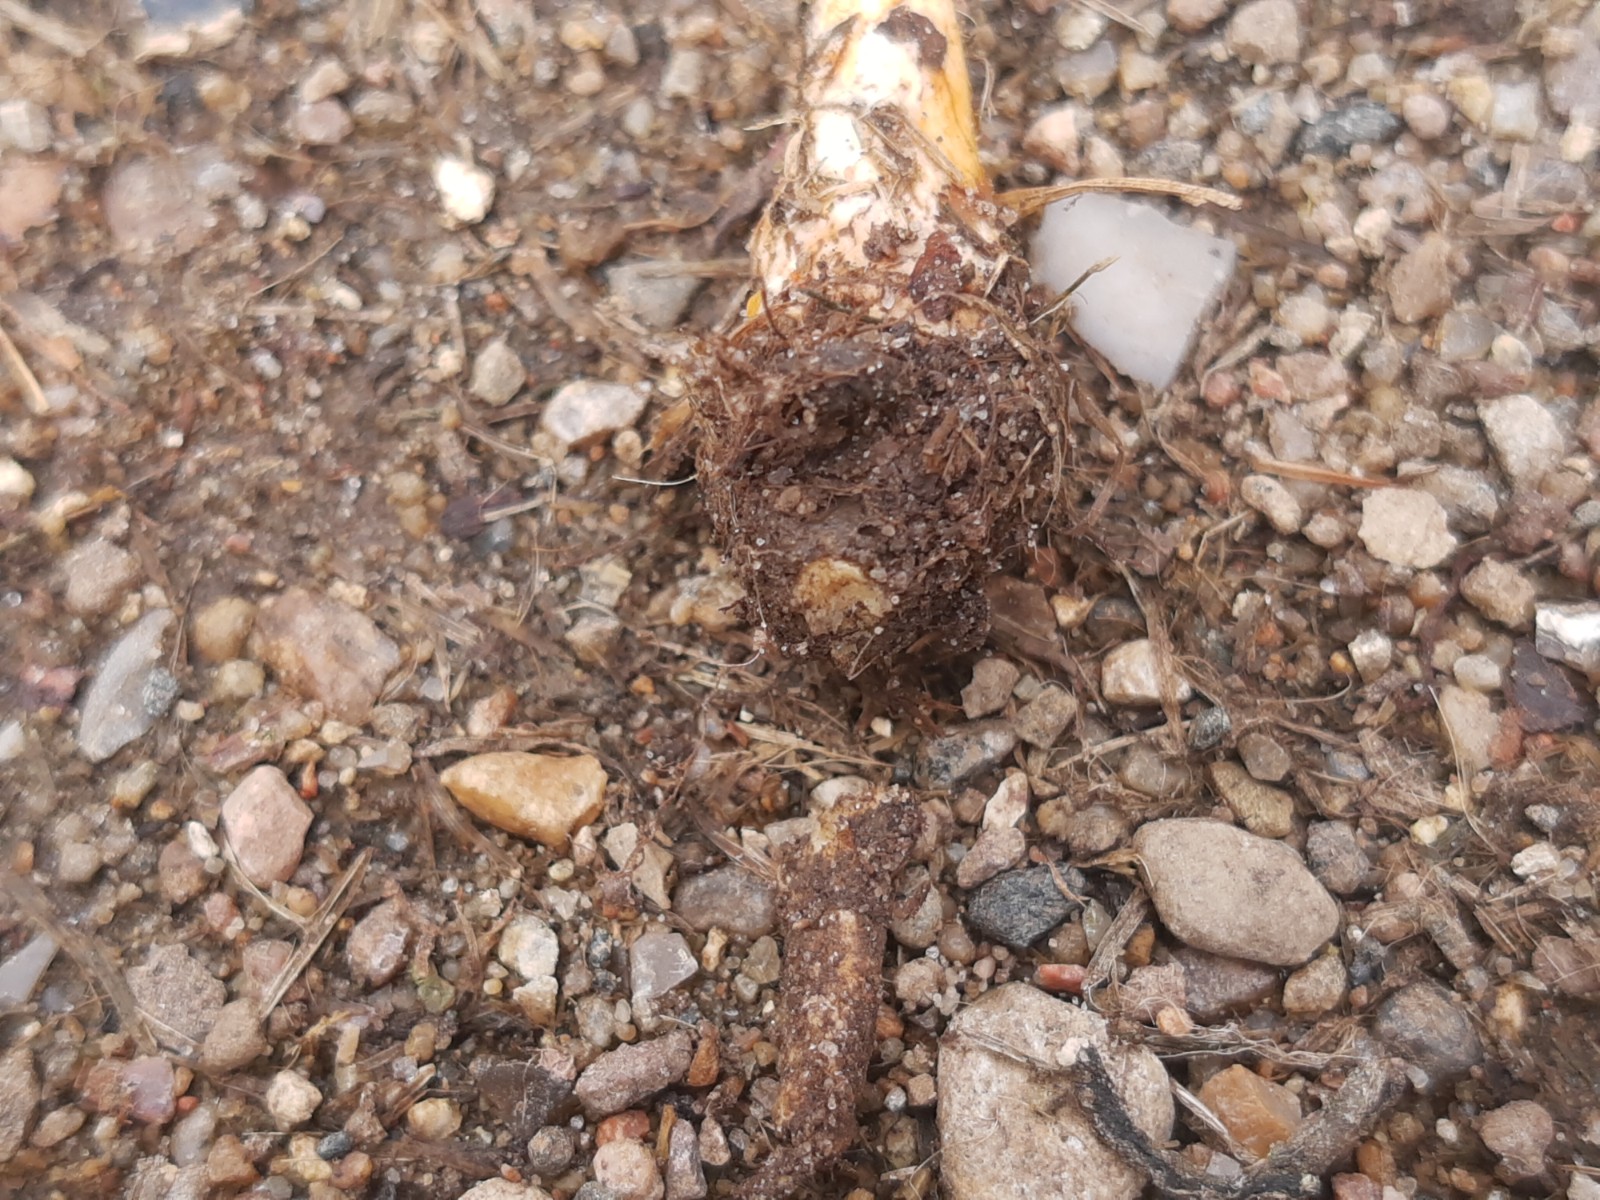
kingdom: Fungi
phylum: Basidiomycota
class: Agaricomycetes
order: Agaricales
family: Strophariaceae
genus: Agrocybe
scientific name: Agrocybe arvalis
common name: rodslående agerhat
